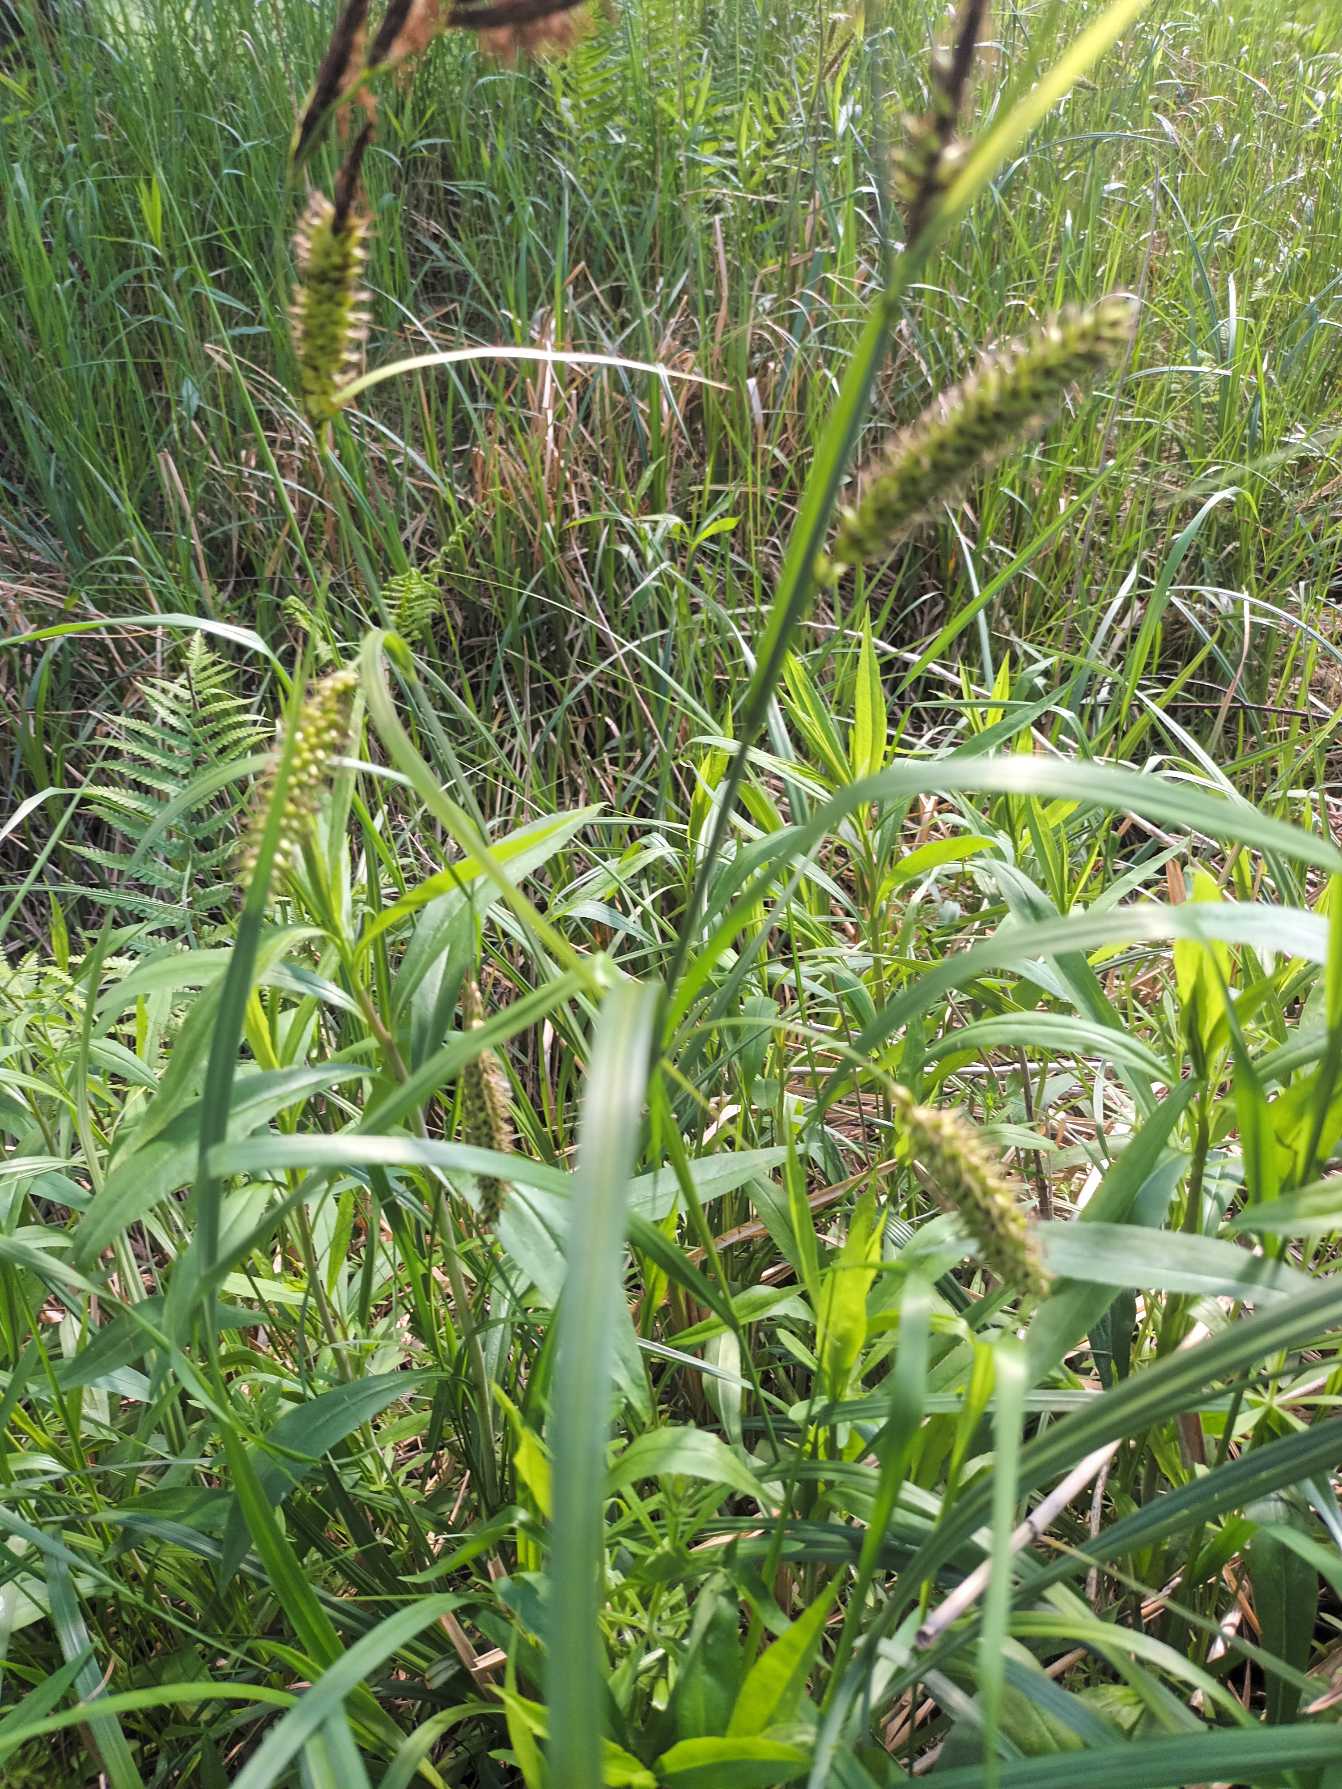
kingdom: Plantae
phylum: Tracheophyta
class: Liliopsida
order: Poales
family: Cyperaceae
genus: Carex
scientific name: Carex riparia
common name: Tykakset star
